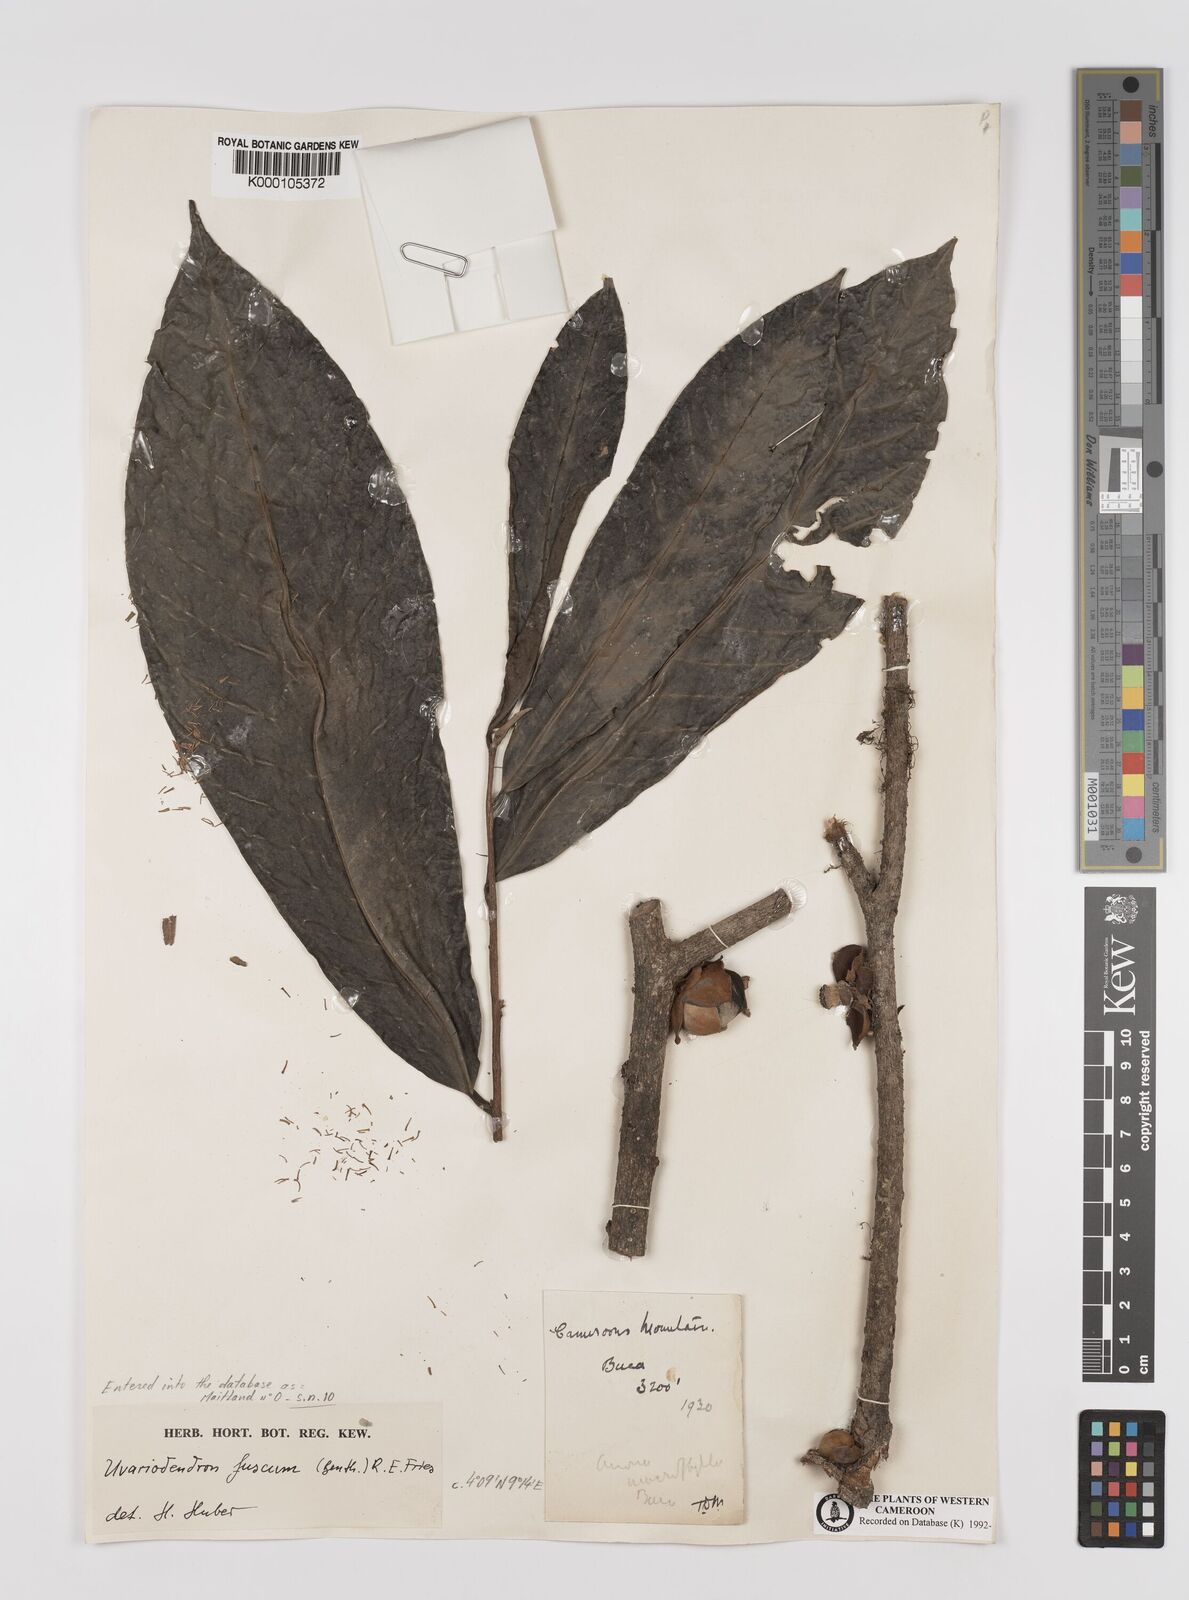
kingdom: Plantae
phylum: Tracheophyta
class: Magnoliopsida
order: Magnoliales
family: Annonaceae
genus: Uvariodendron
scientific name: Uvariodendron fuscum
